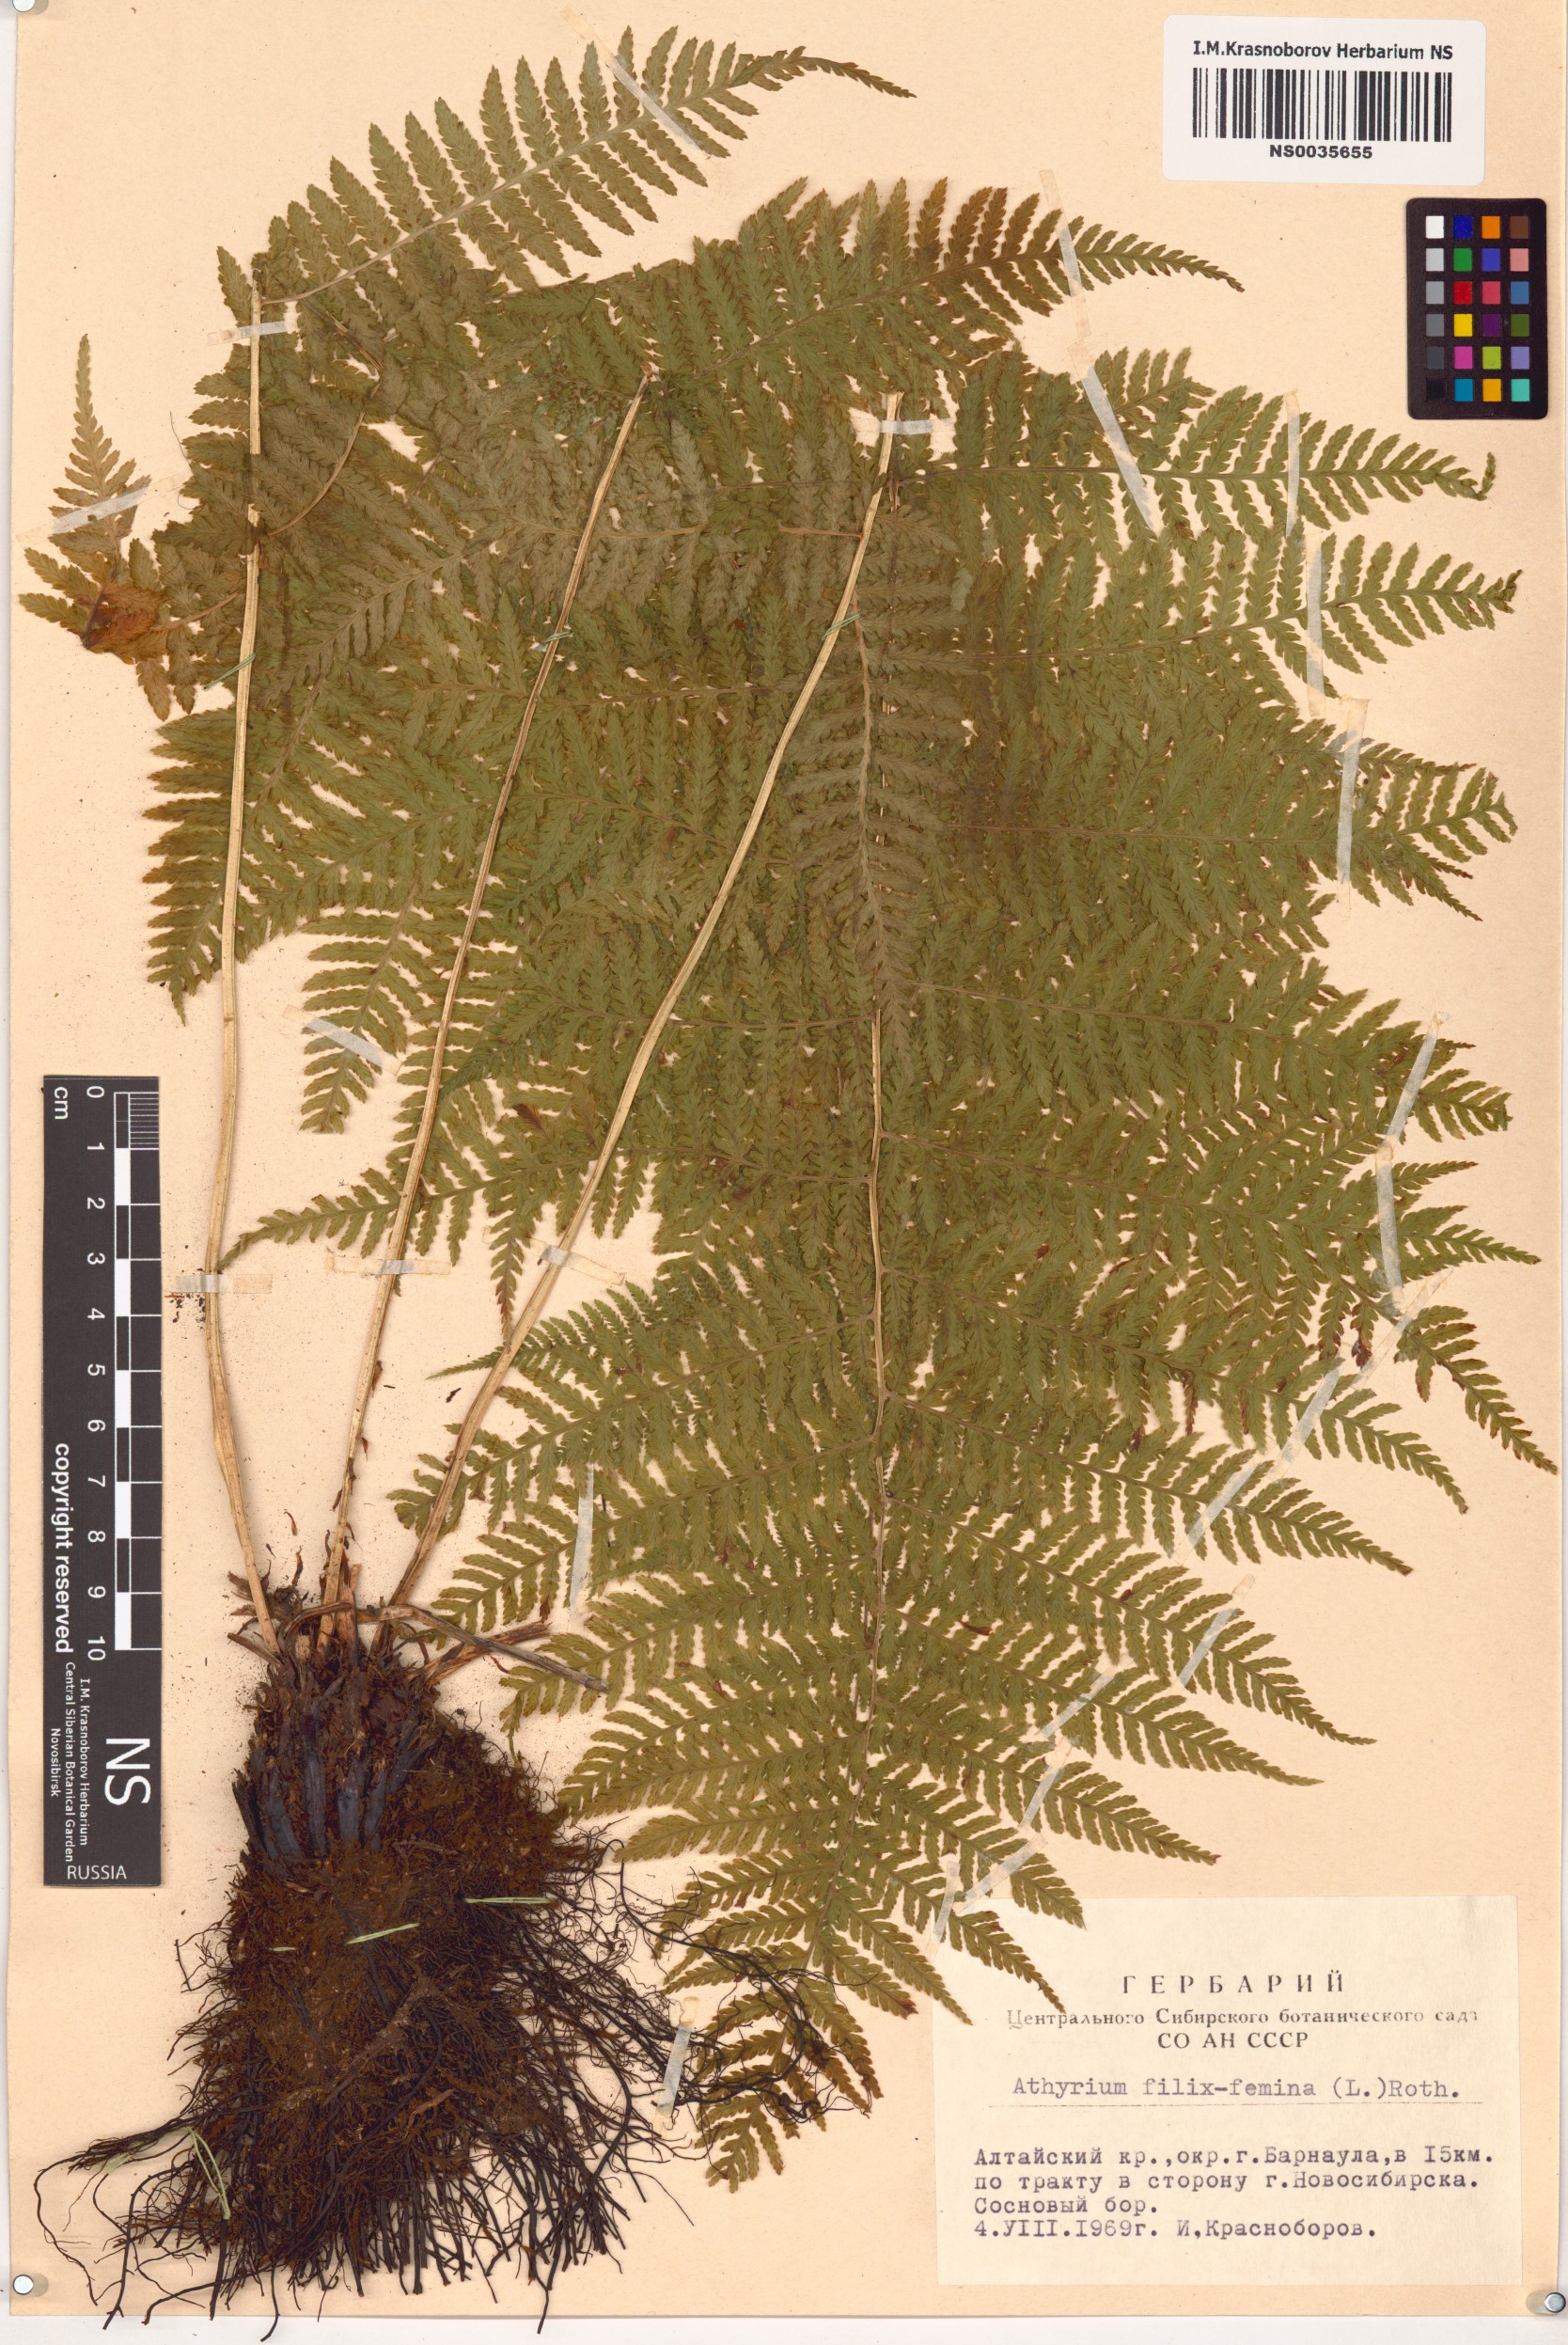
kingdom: Plantae
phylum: Tracheophyta
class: Polypodiopsida
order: Polypodiales
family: Athyriaceae
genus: Athyrium
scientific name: Athyrium filix-femina
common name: Lady fern
